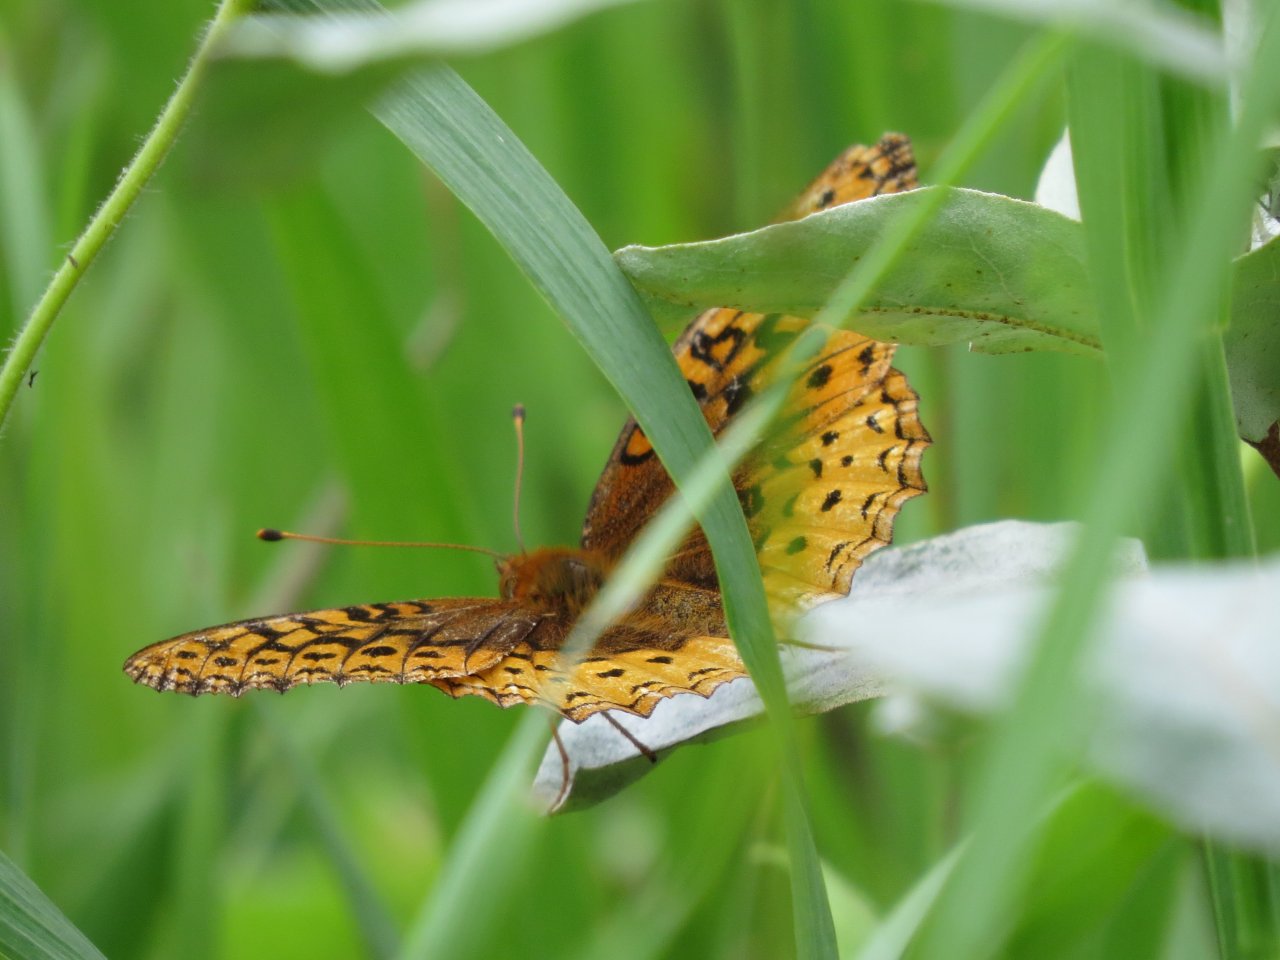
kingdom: Animalia
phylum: Arthropoda
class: Insecta
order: Lepidoptera
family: Nymphalidae
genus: Speyeria
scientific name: Speyeria cybele
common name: Great Spangled Fritillary
